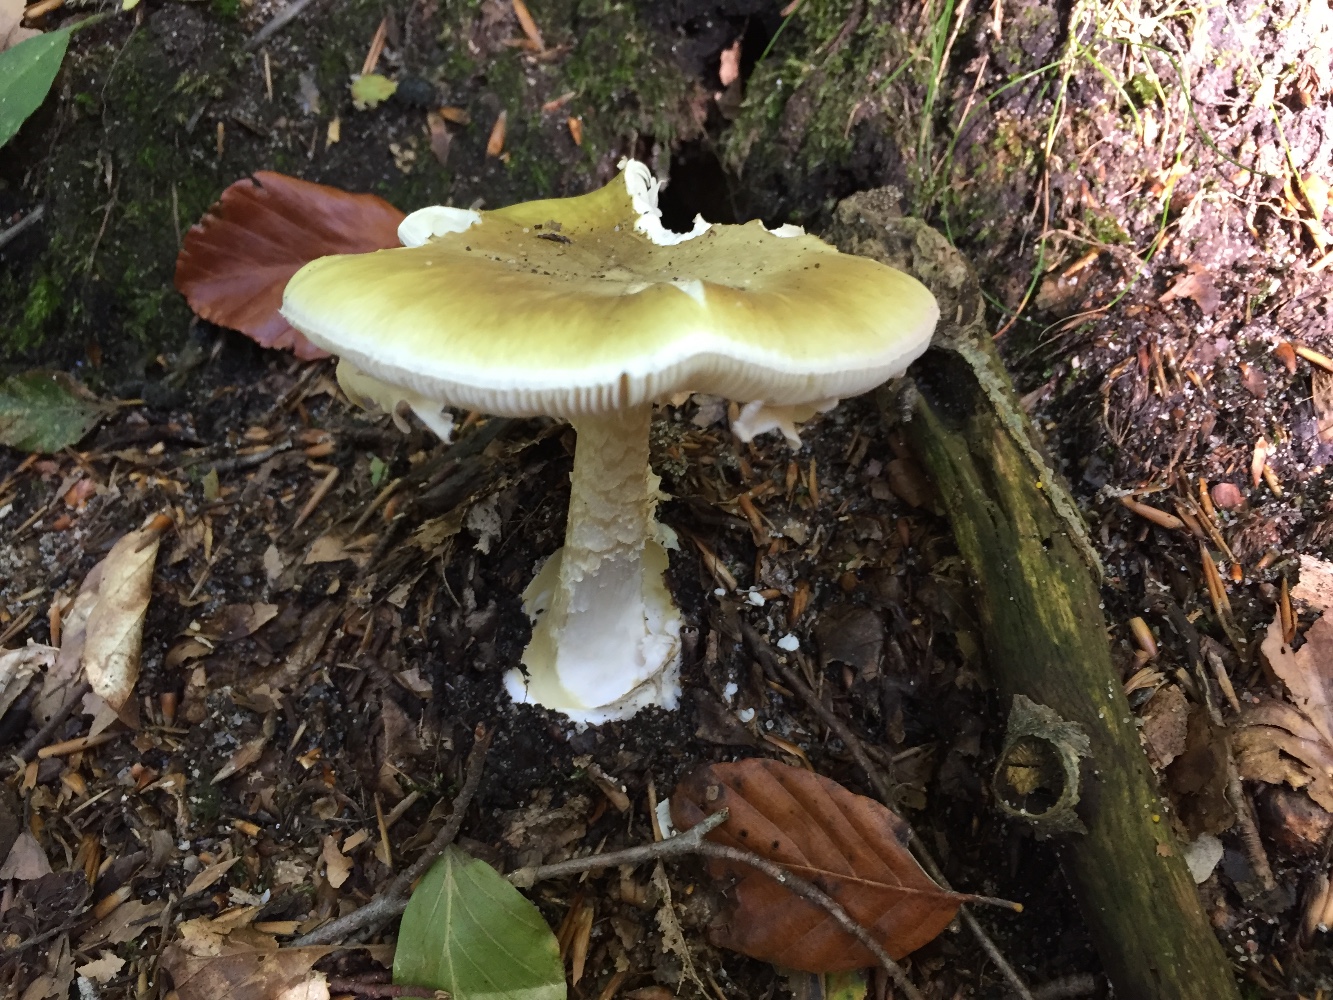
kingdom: Fungi
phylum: Basidiomycota
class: Agaricomycetes
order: Agaricales
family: Amanitaceae
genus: Amanita
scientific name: Amanita phalloides
